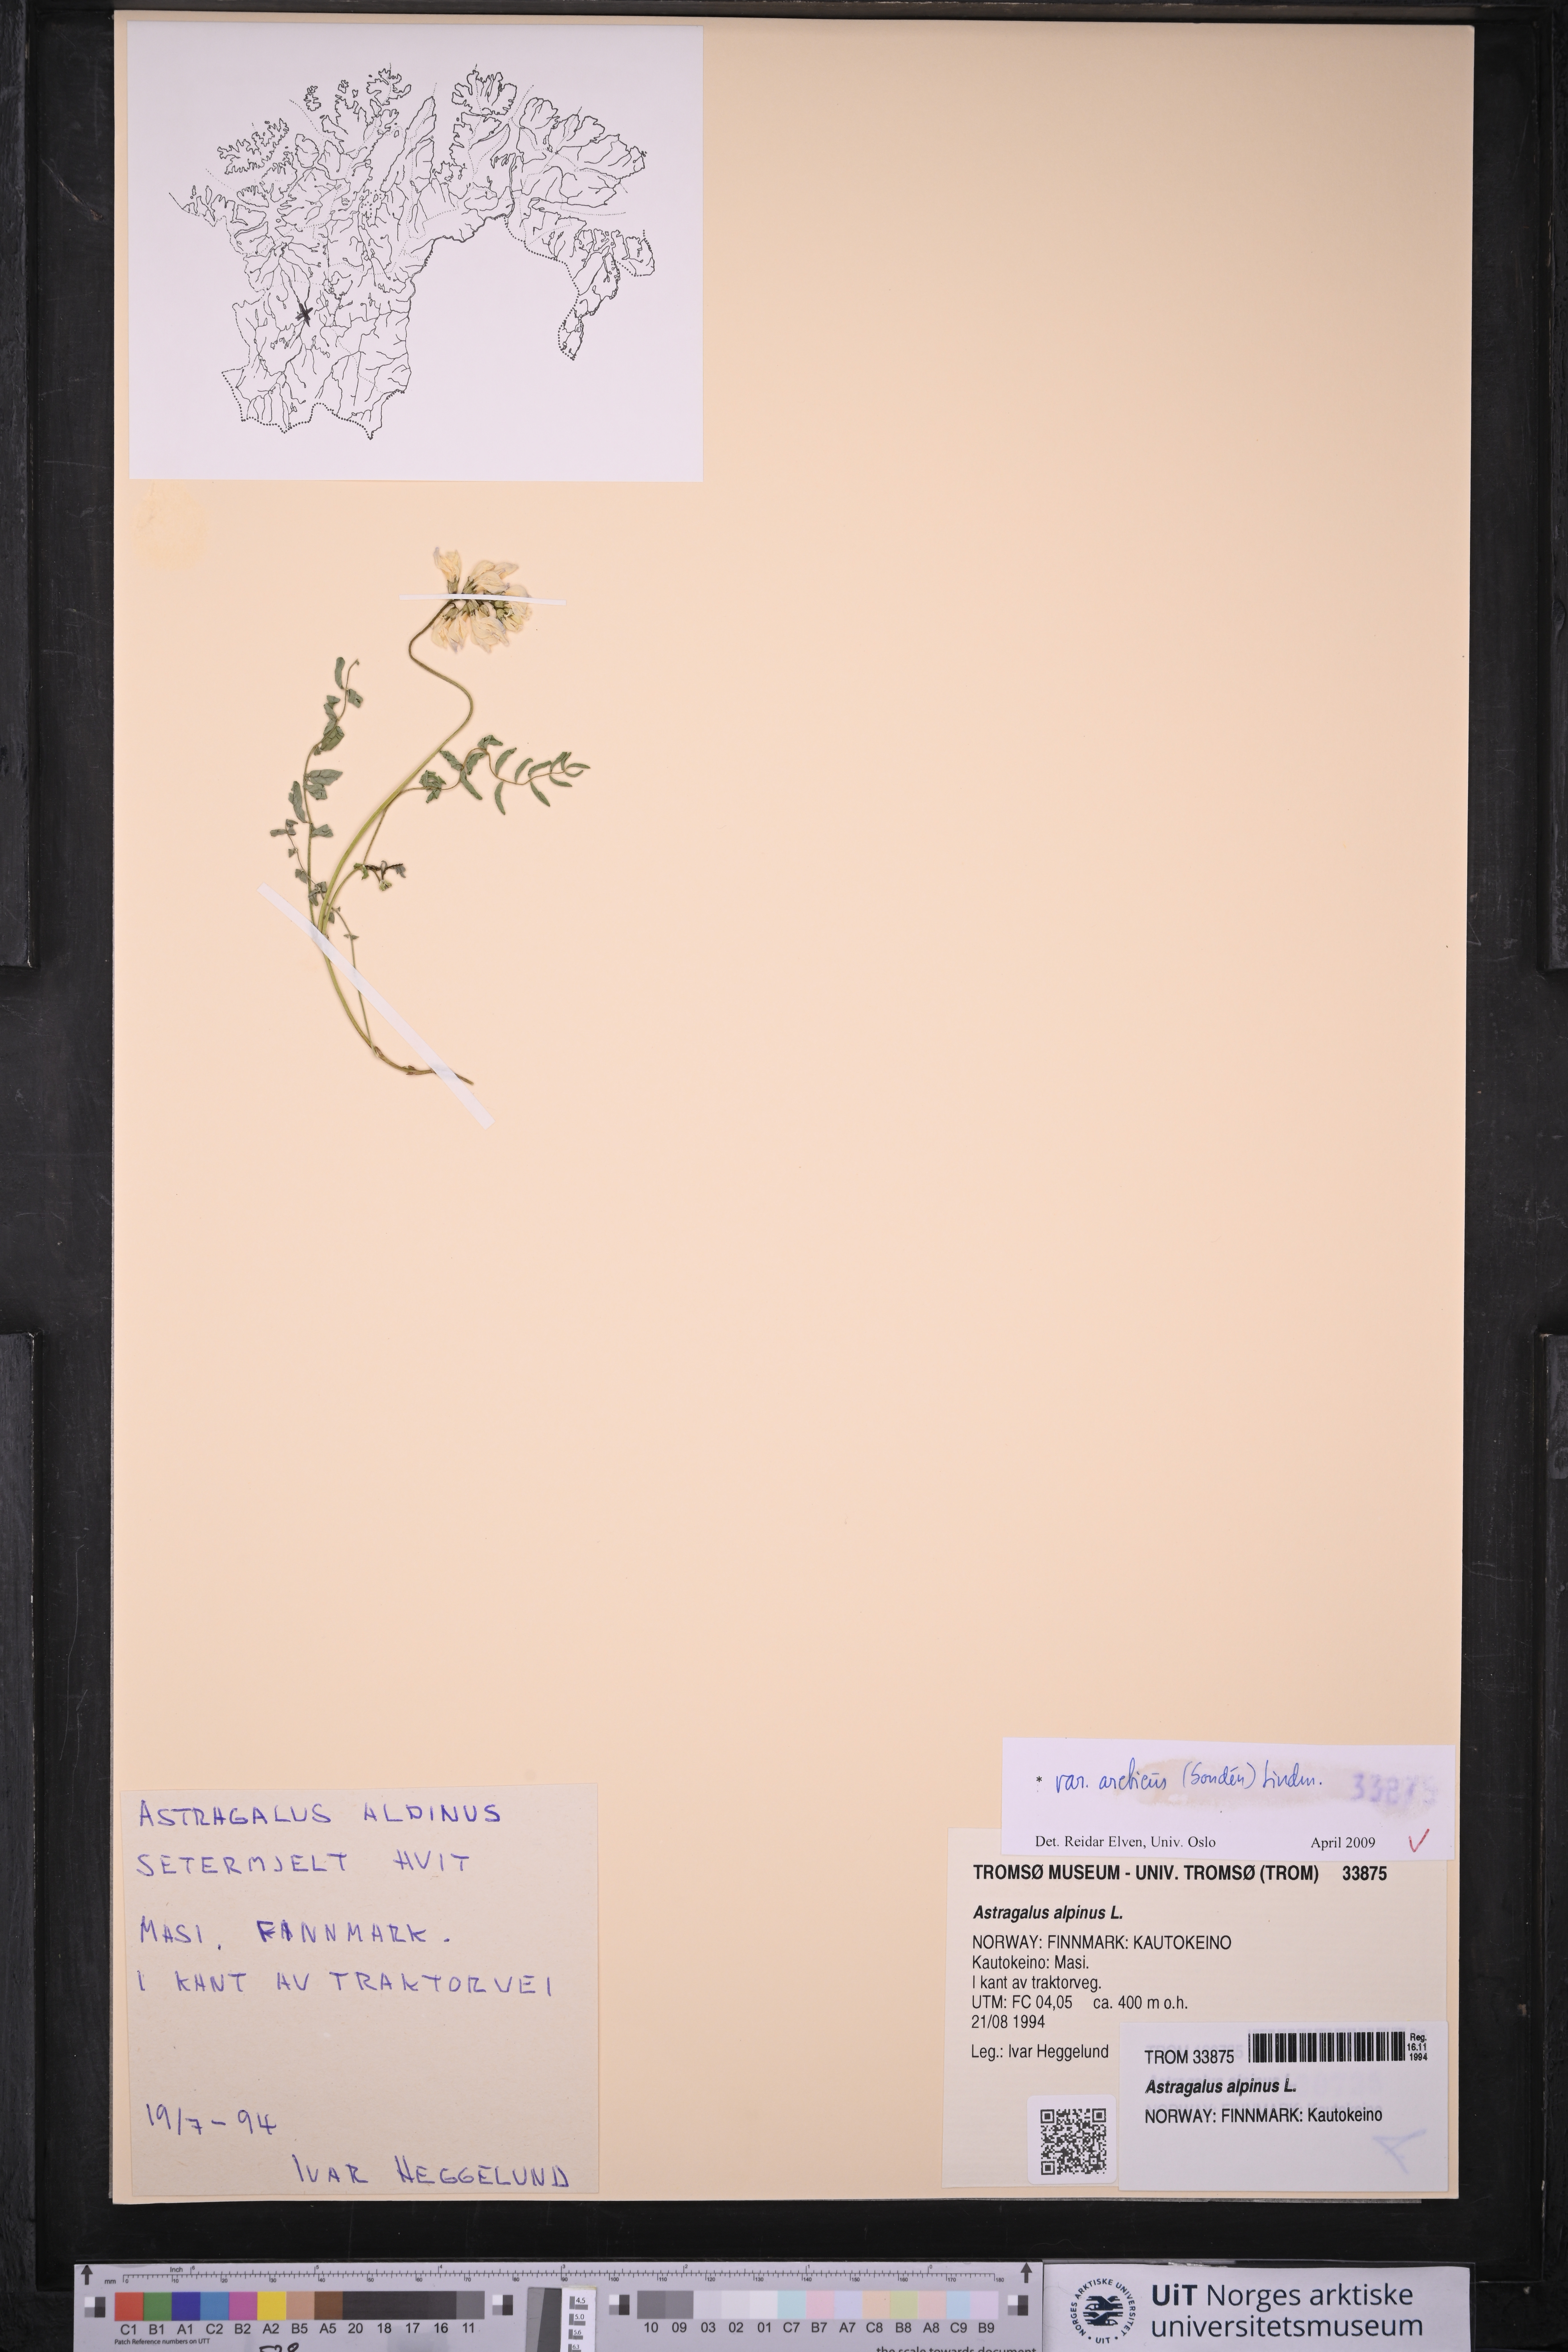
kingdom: Plantae
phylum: Tracheophyta
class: Magnoliopsida
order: Fabales
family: Fabaceae
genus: Astragalus
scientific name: Astragalus norvegicus
